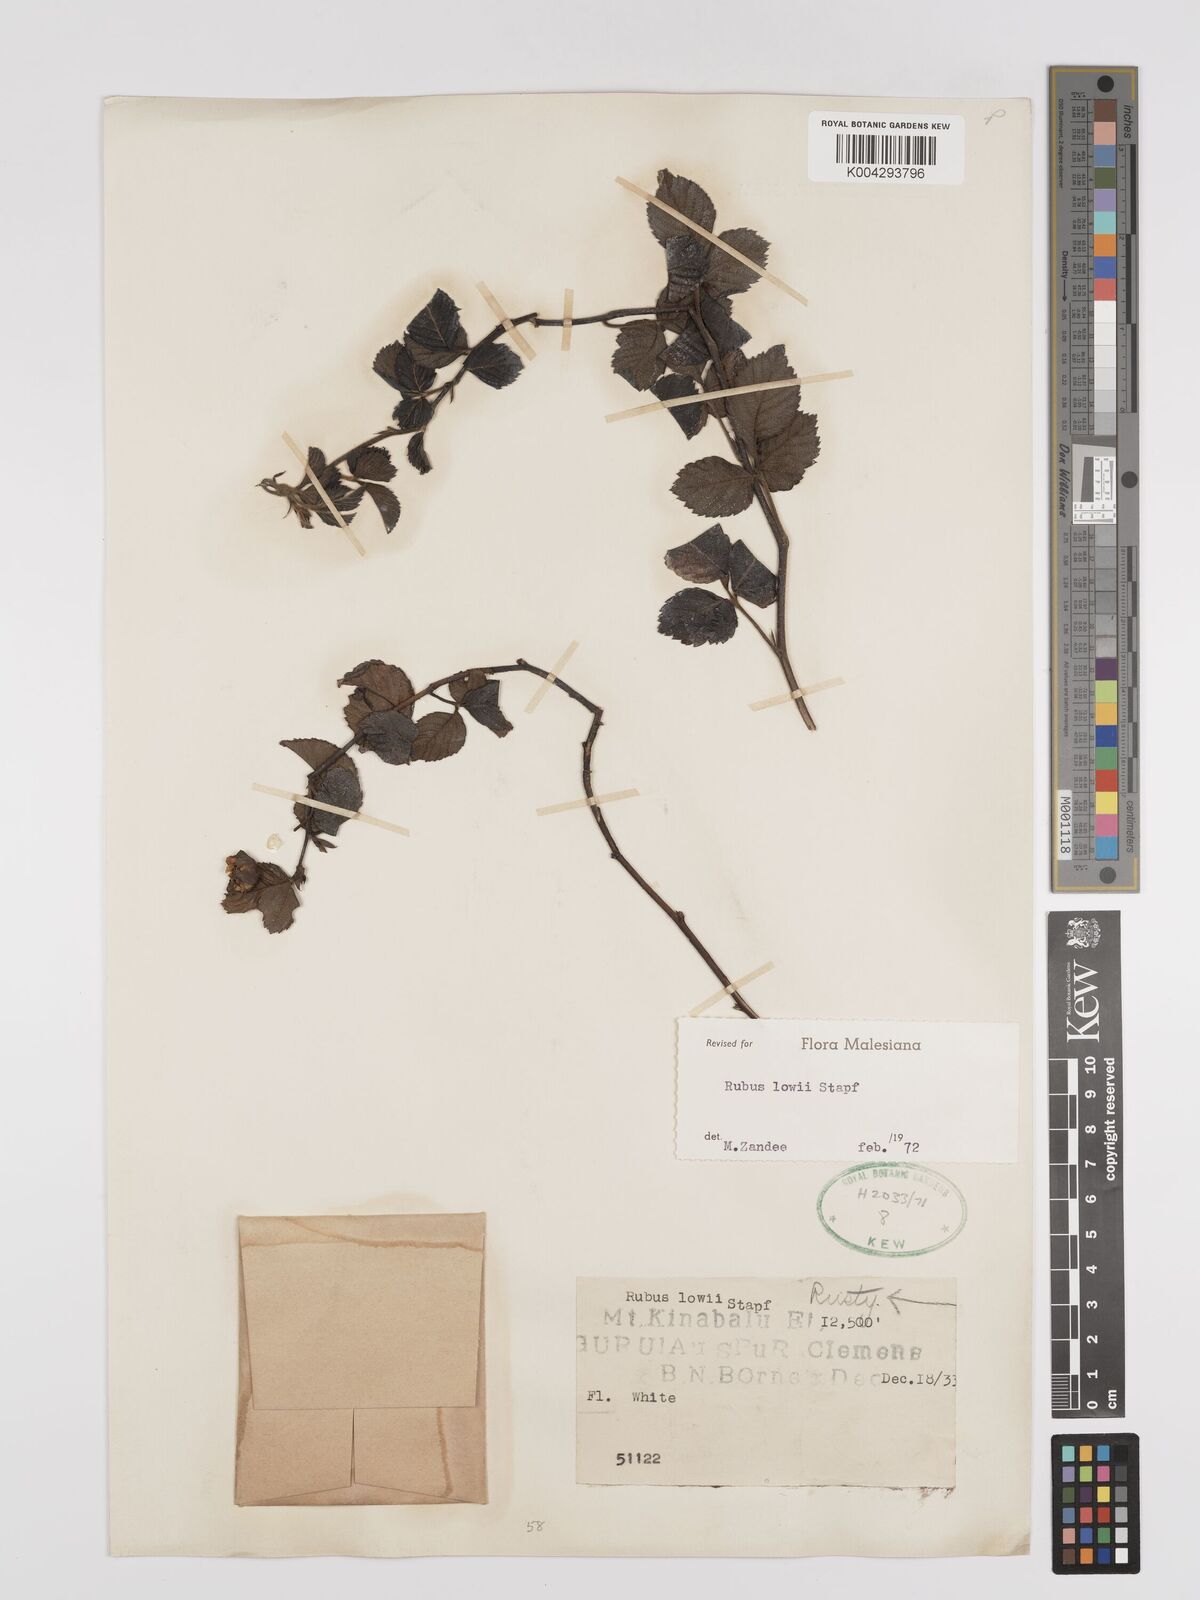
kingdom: Plantae
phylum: Tracheophyta
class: Magnoliopsida
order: Rosales
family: Rosaceae
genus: Rubus
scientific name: Rubus lowii
